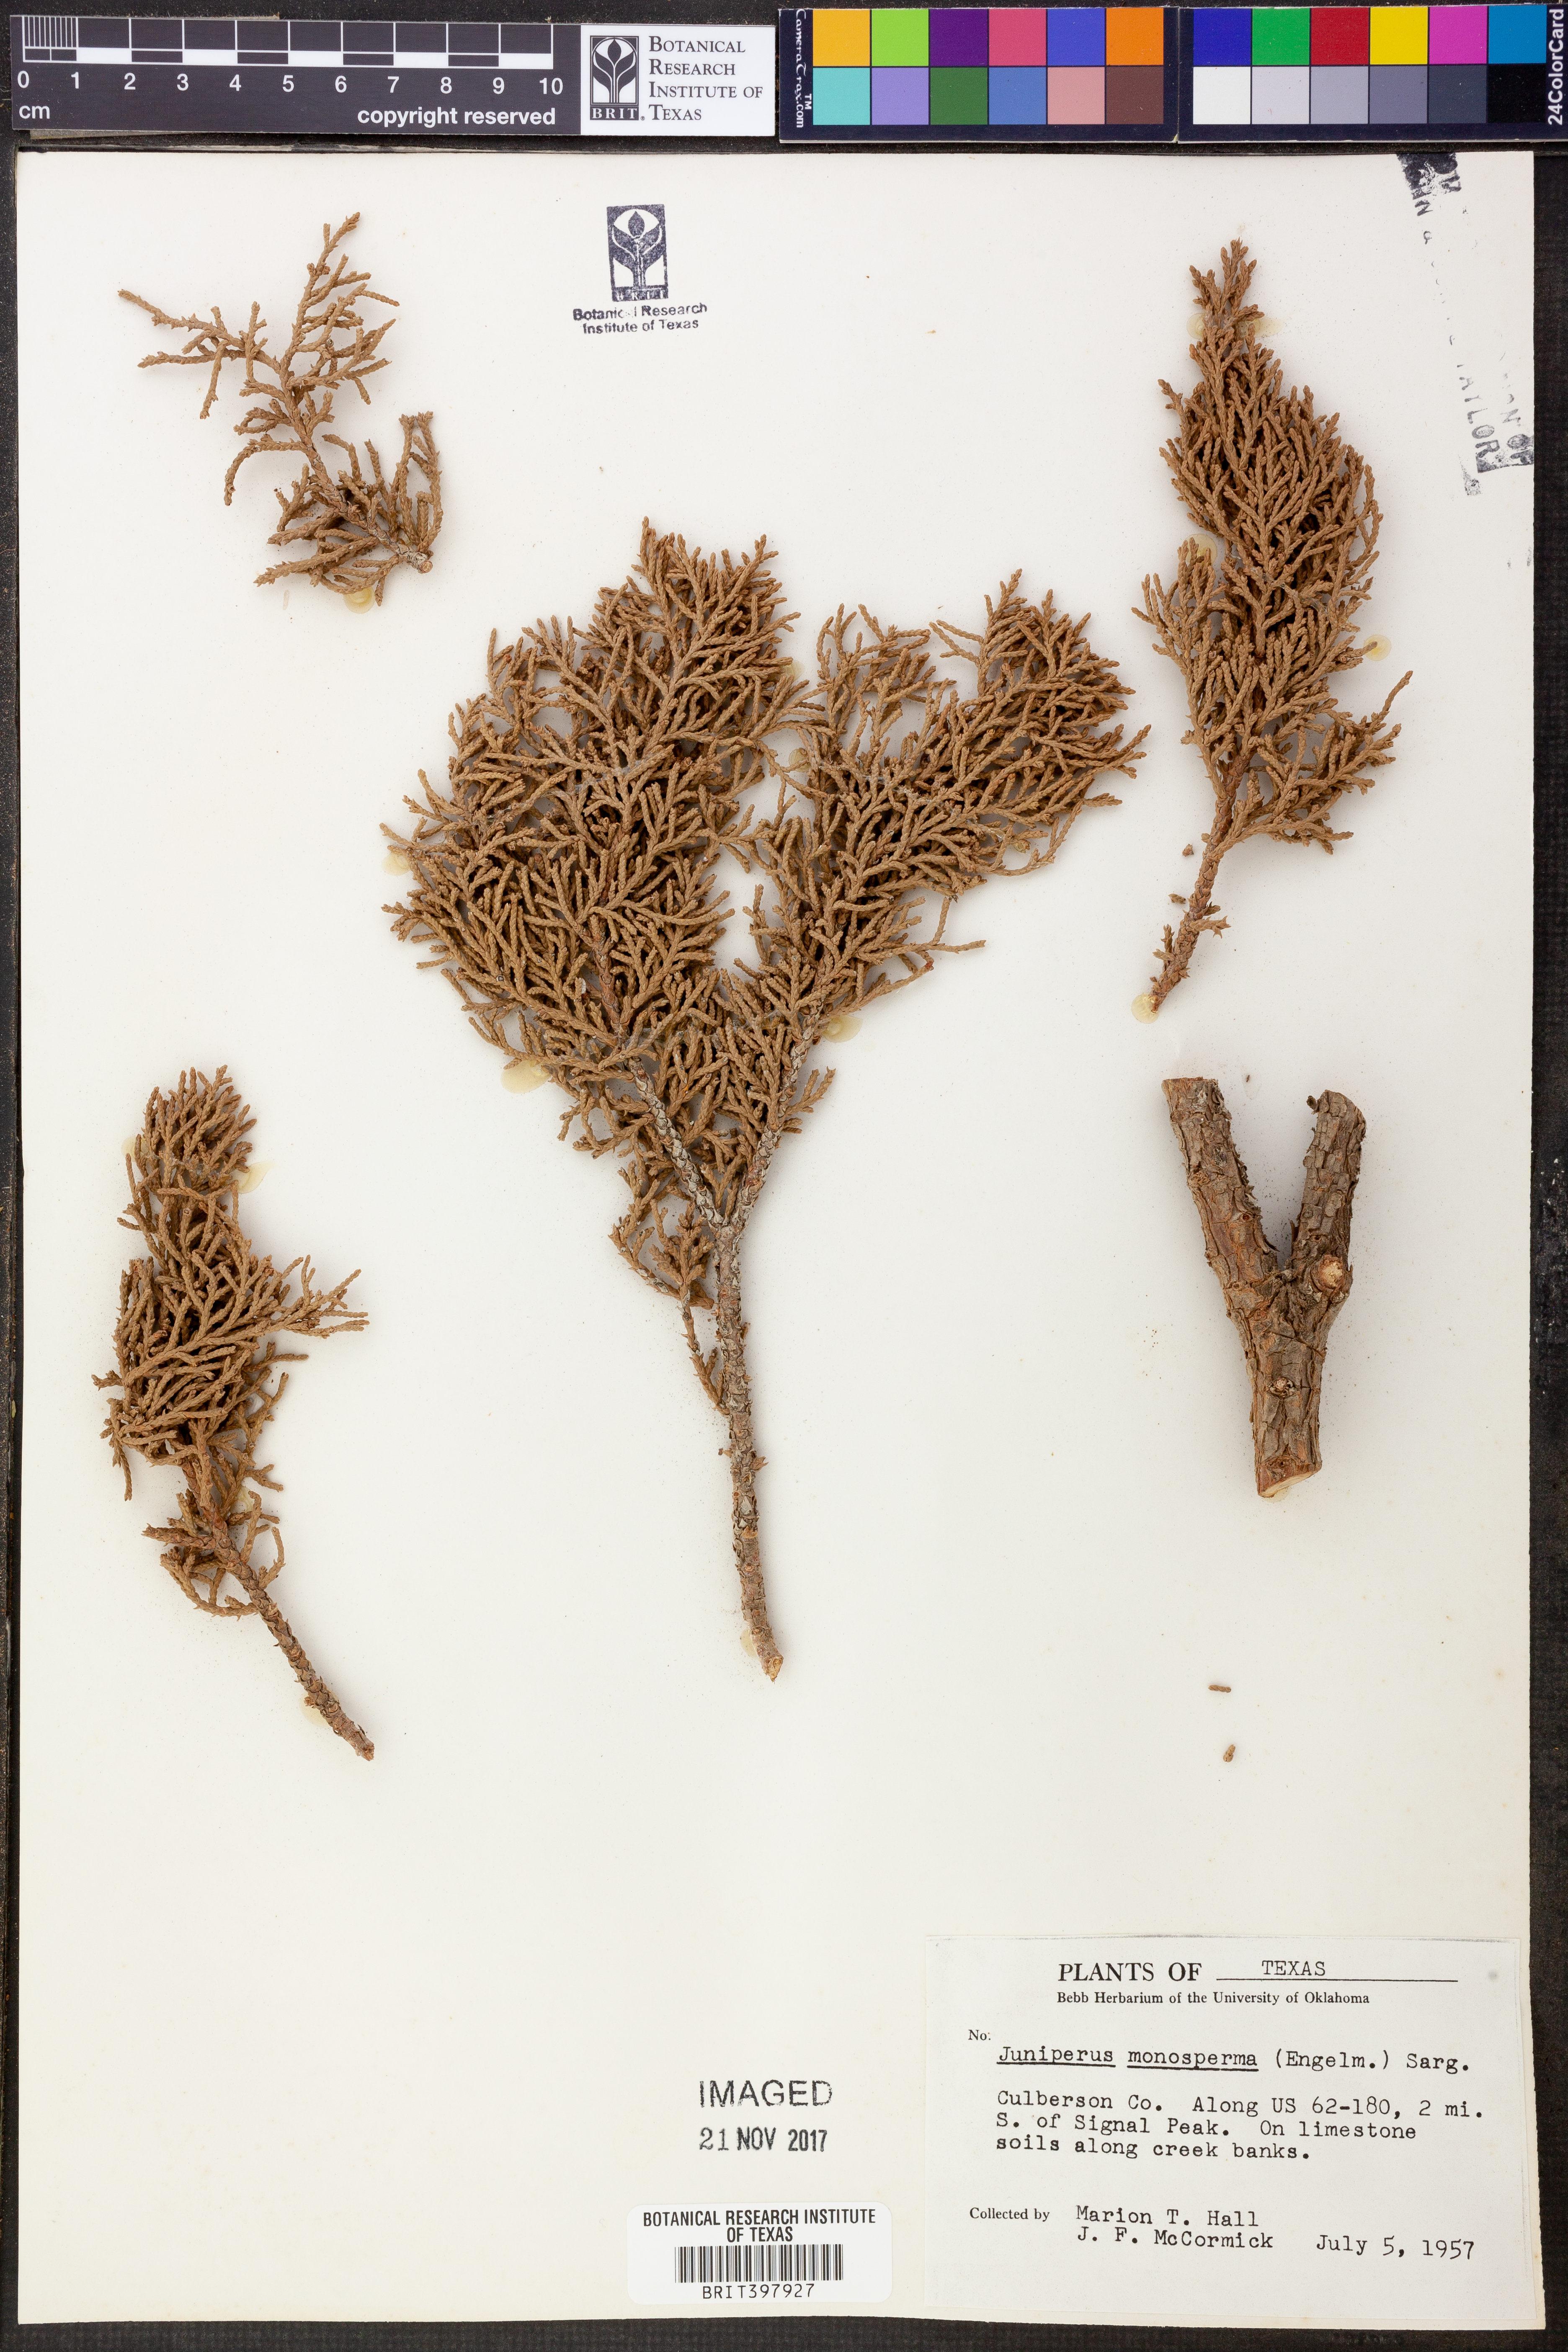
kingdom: Plantae
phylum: Tracheophyta
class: Pinopsida
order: Pinales
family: Cupressaceae
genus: Juniperus
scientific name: Juniperus monosperma
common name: One-seed juniper
